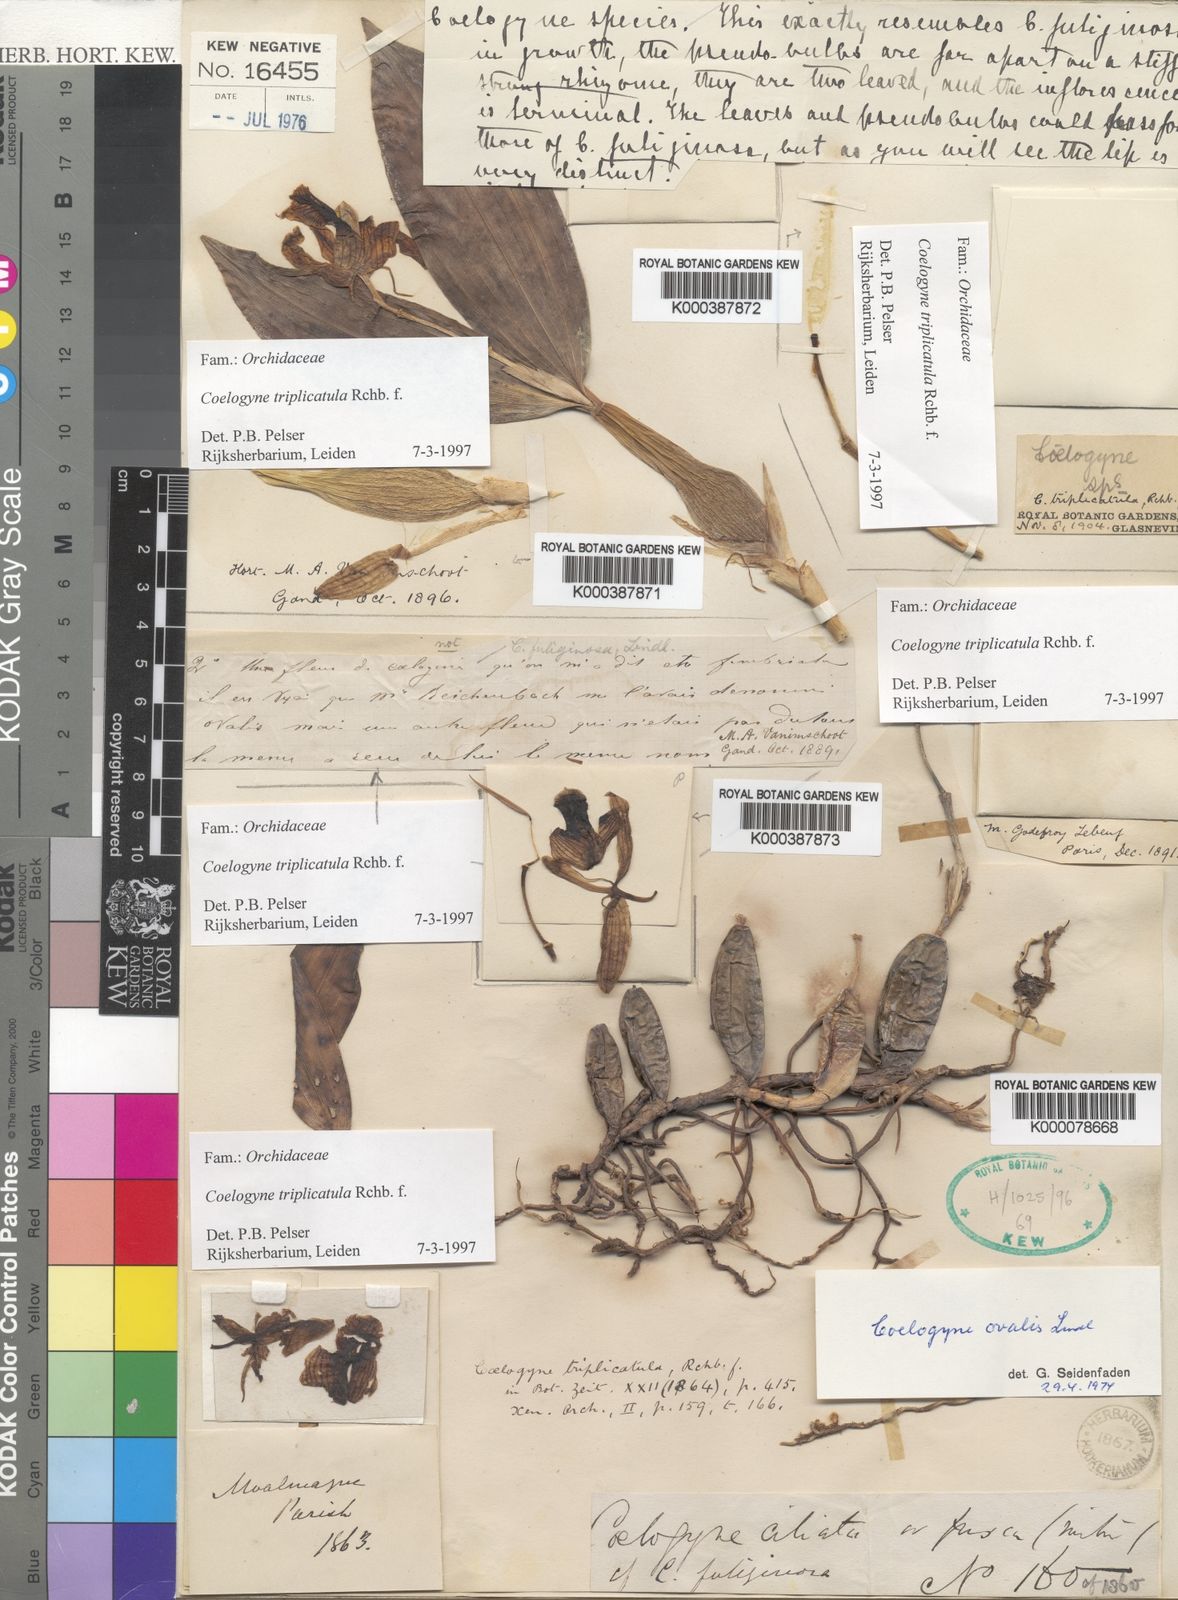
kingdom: Plantae
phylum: Tracheophyta
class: Liliopsida
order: Asparagales
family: Orchidaceae
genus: Coelogyne
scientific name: Coelogyne triplicatula
